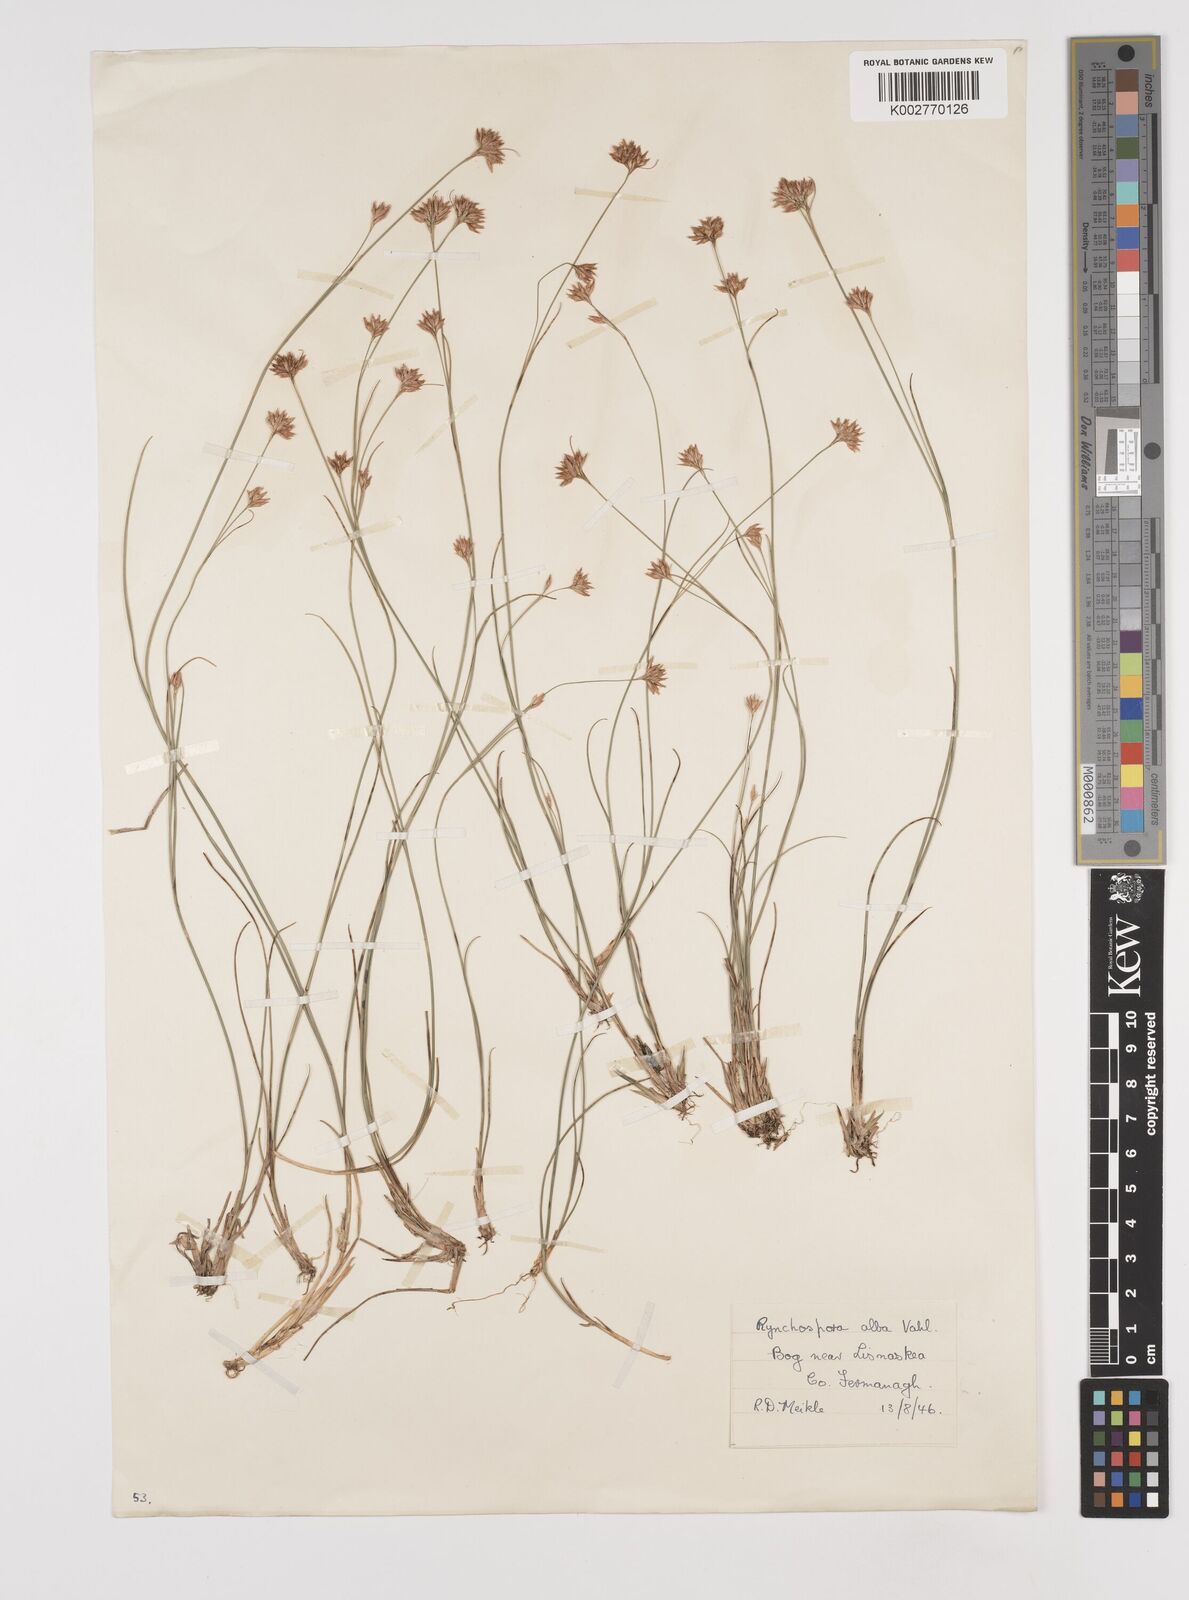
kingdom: Plantae
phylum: Tracheophyta
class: Liliopsida
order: Poales
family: Cyperaceae
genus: Rhynchospora
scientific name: Rhynchospora alba
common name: White beak-sedge
